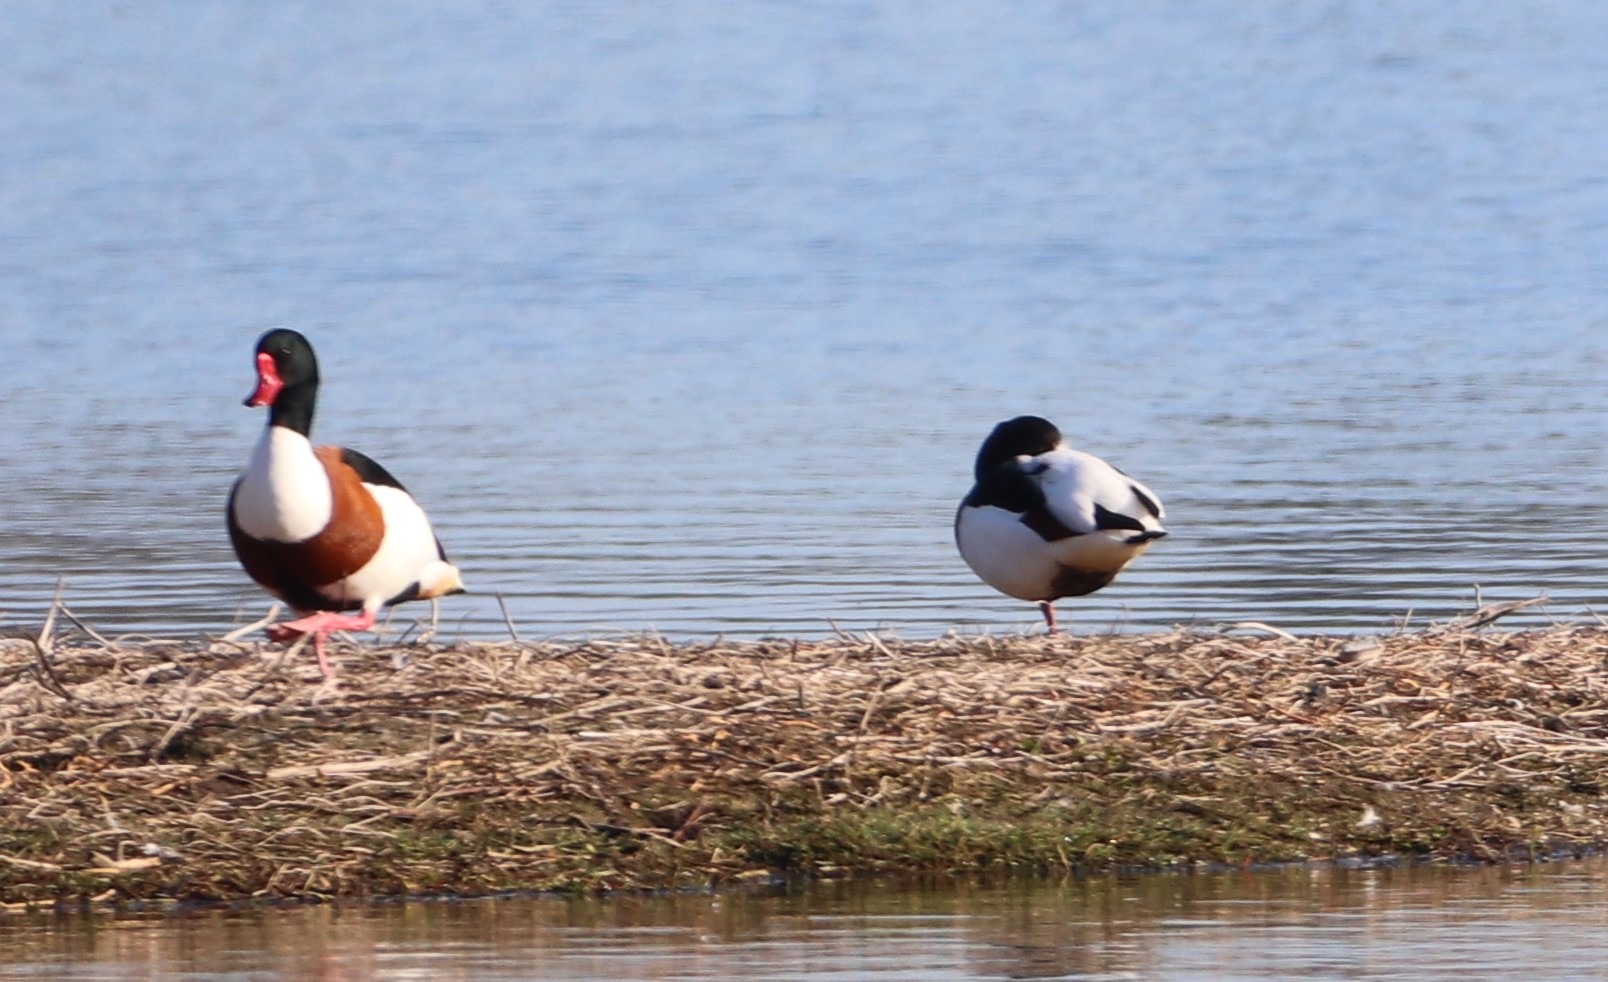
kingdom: Animalia
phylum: Chordata
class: Aves
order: Anseriformes
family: Anatidae
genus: Tadorna
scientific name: Tadorna tadorna
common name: Gravand
